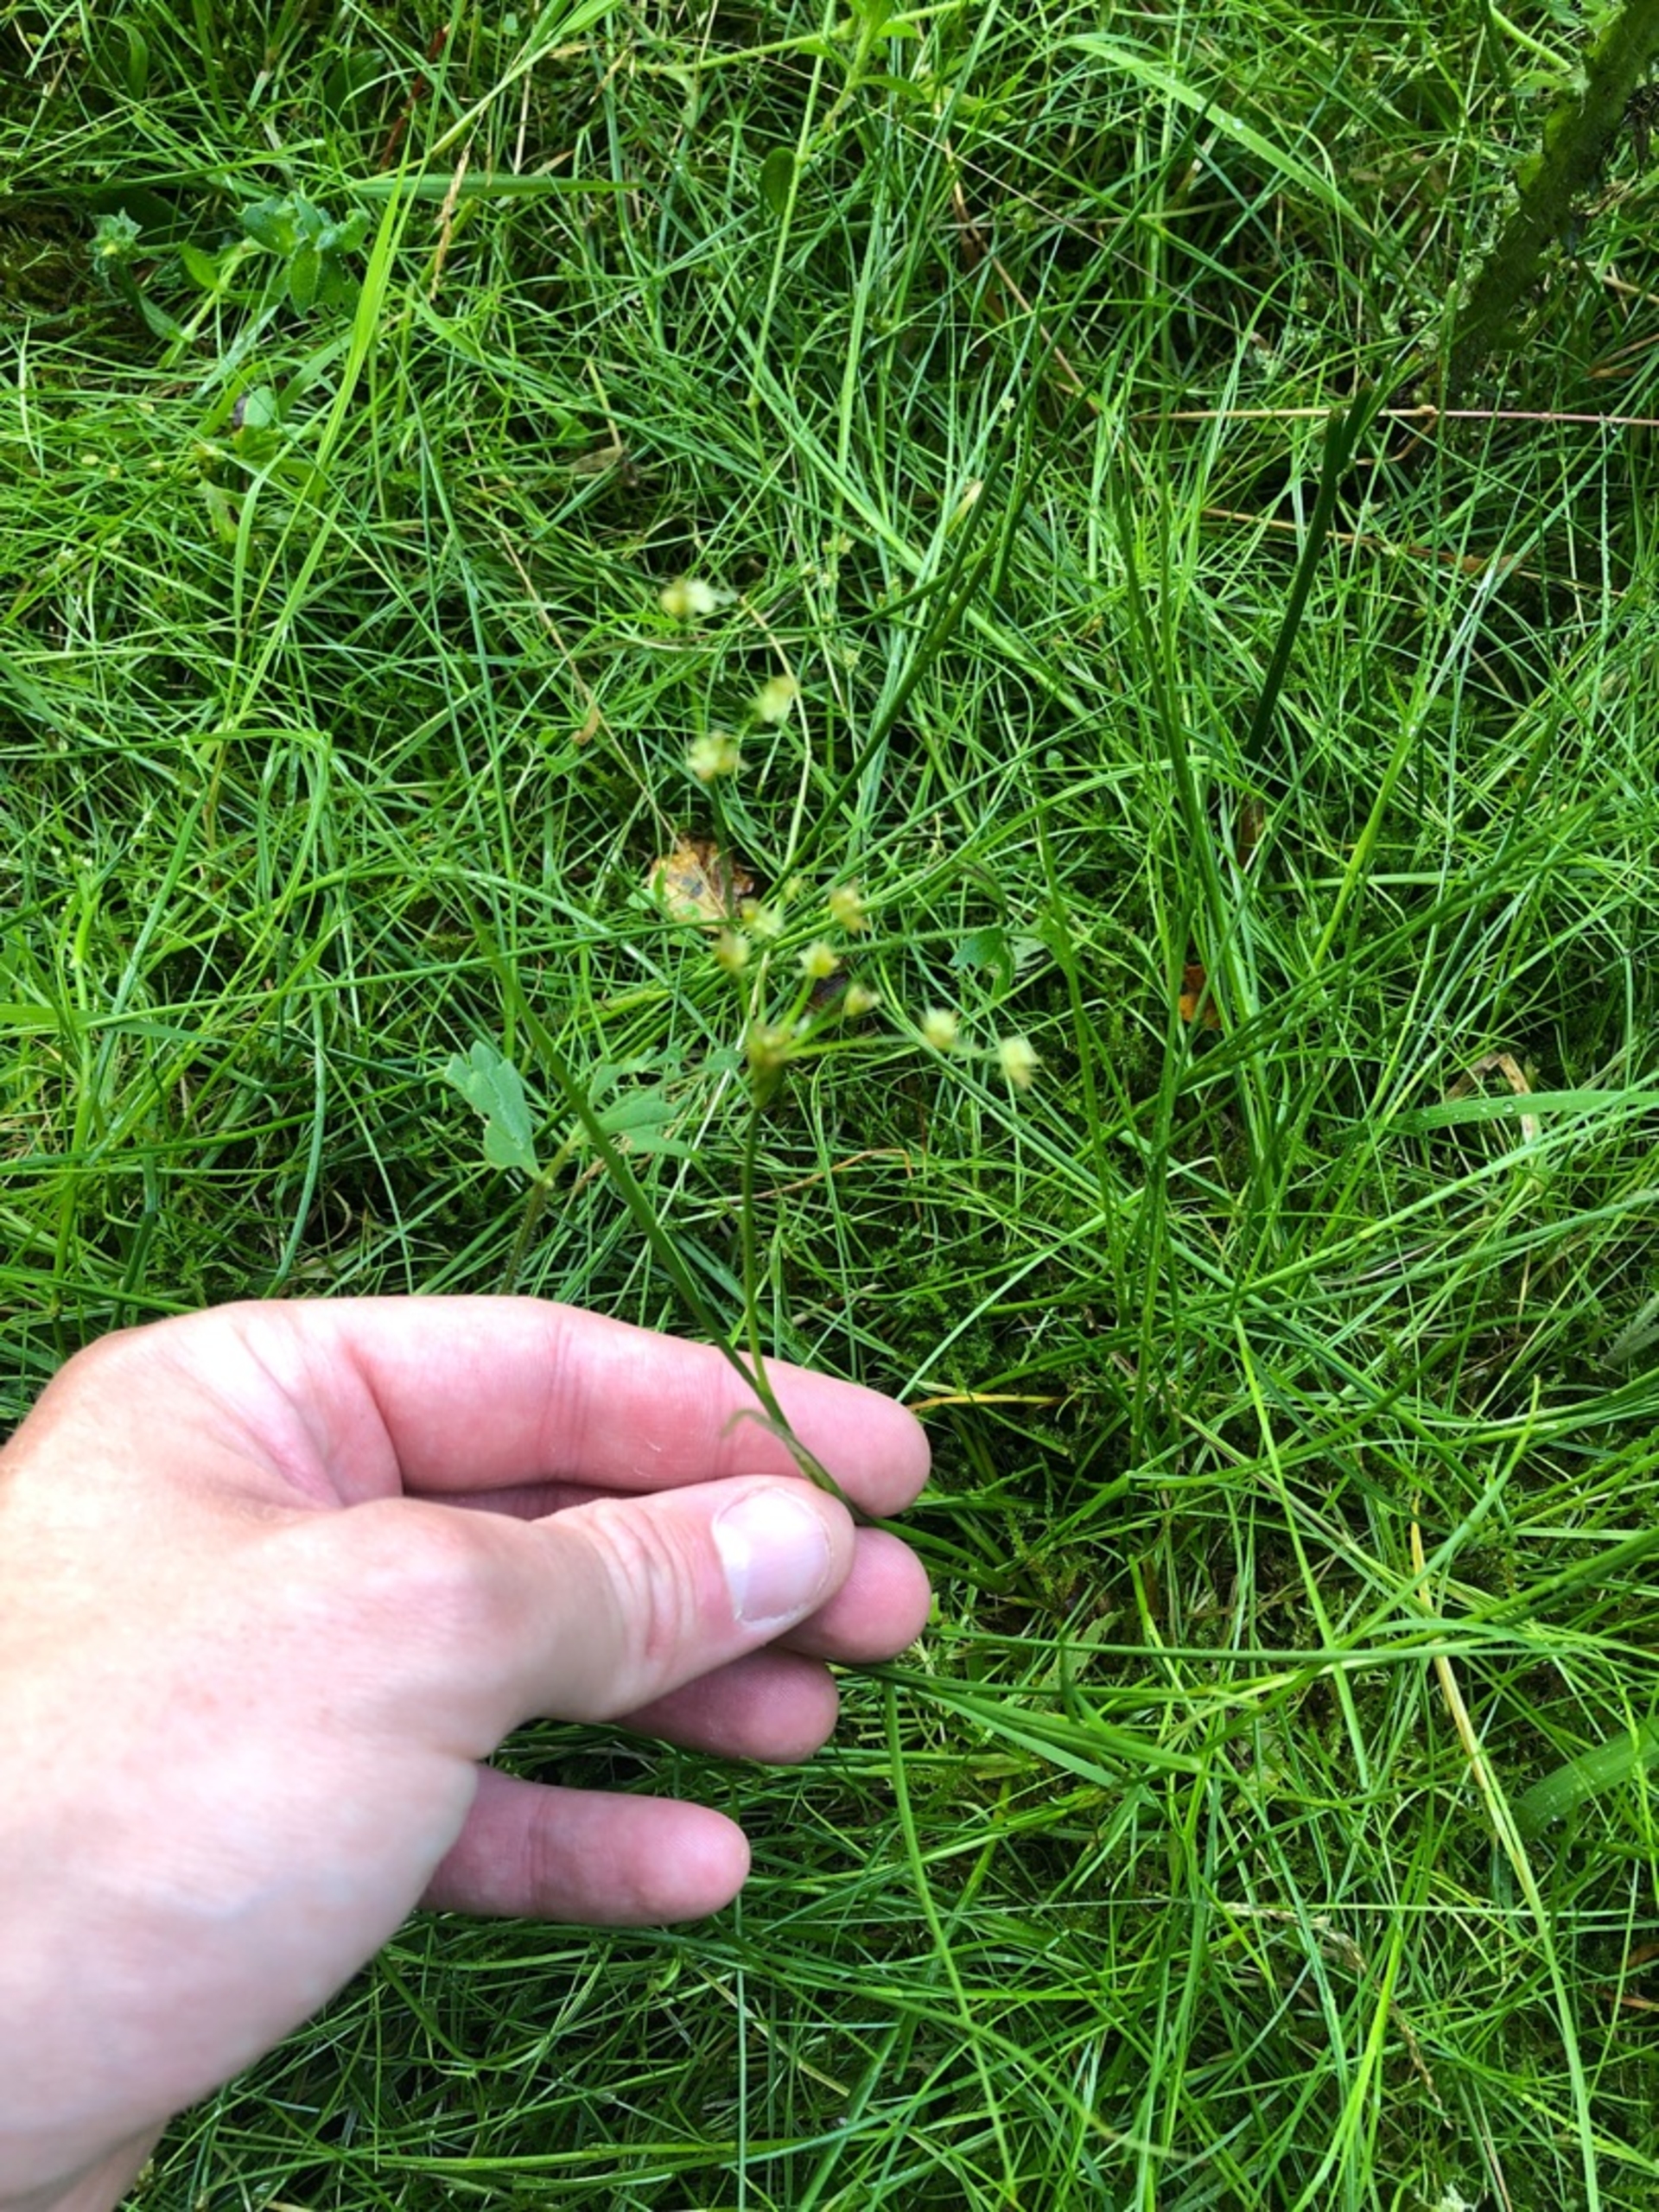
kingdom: Plantae
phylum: Tracheophyta
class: Liliopsida
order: Poales
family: Juncaceae
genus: Juncus
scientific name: Juncus articulatus
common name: Glanskapslet siv
